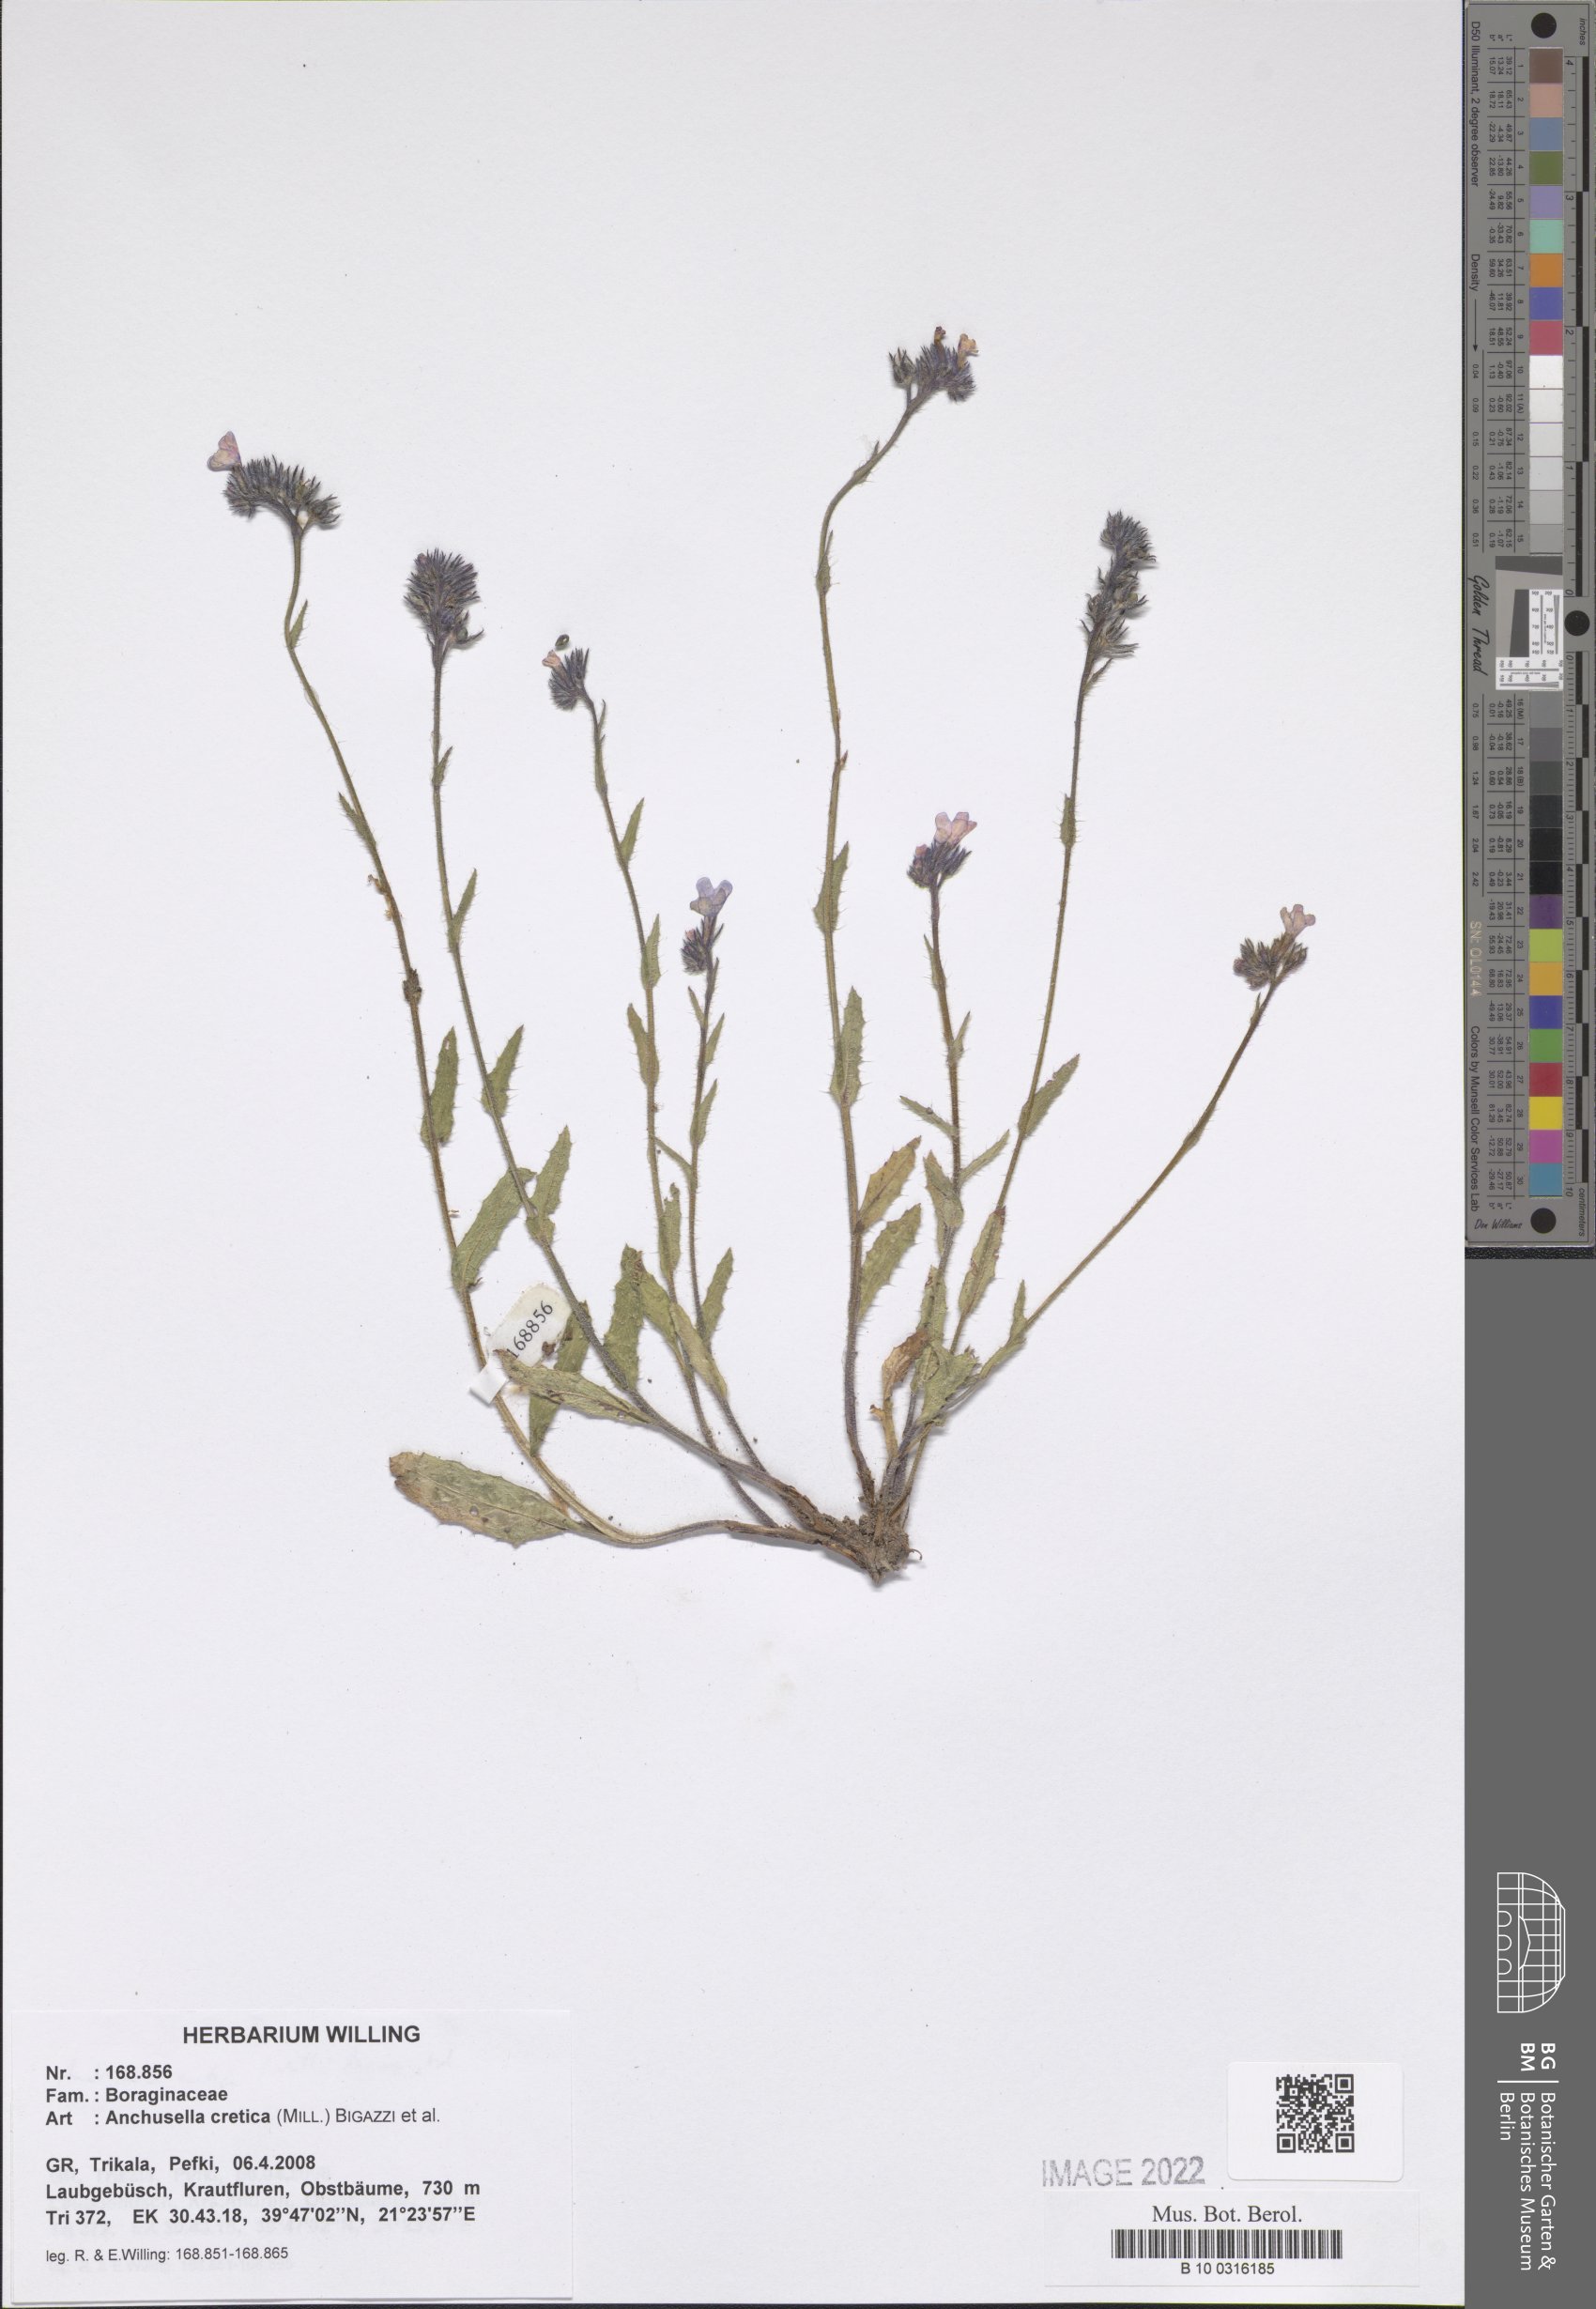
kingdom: Plantae
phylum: Tracheophyta
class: Magnoliopsida
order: Boraginales
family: Boraginaceae
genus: Anchusella
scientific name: Anchusella cretica
